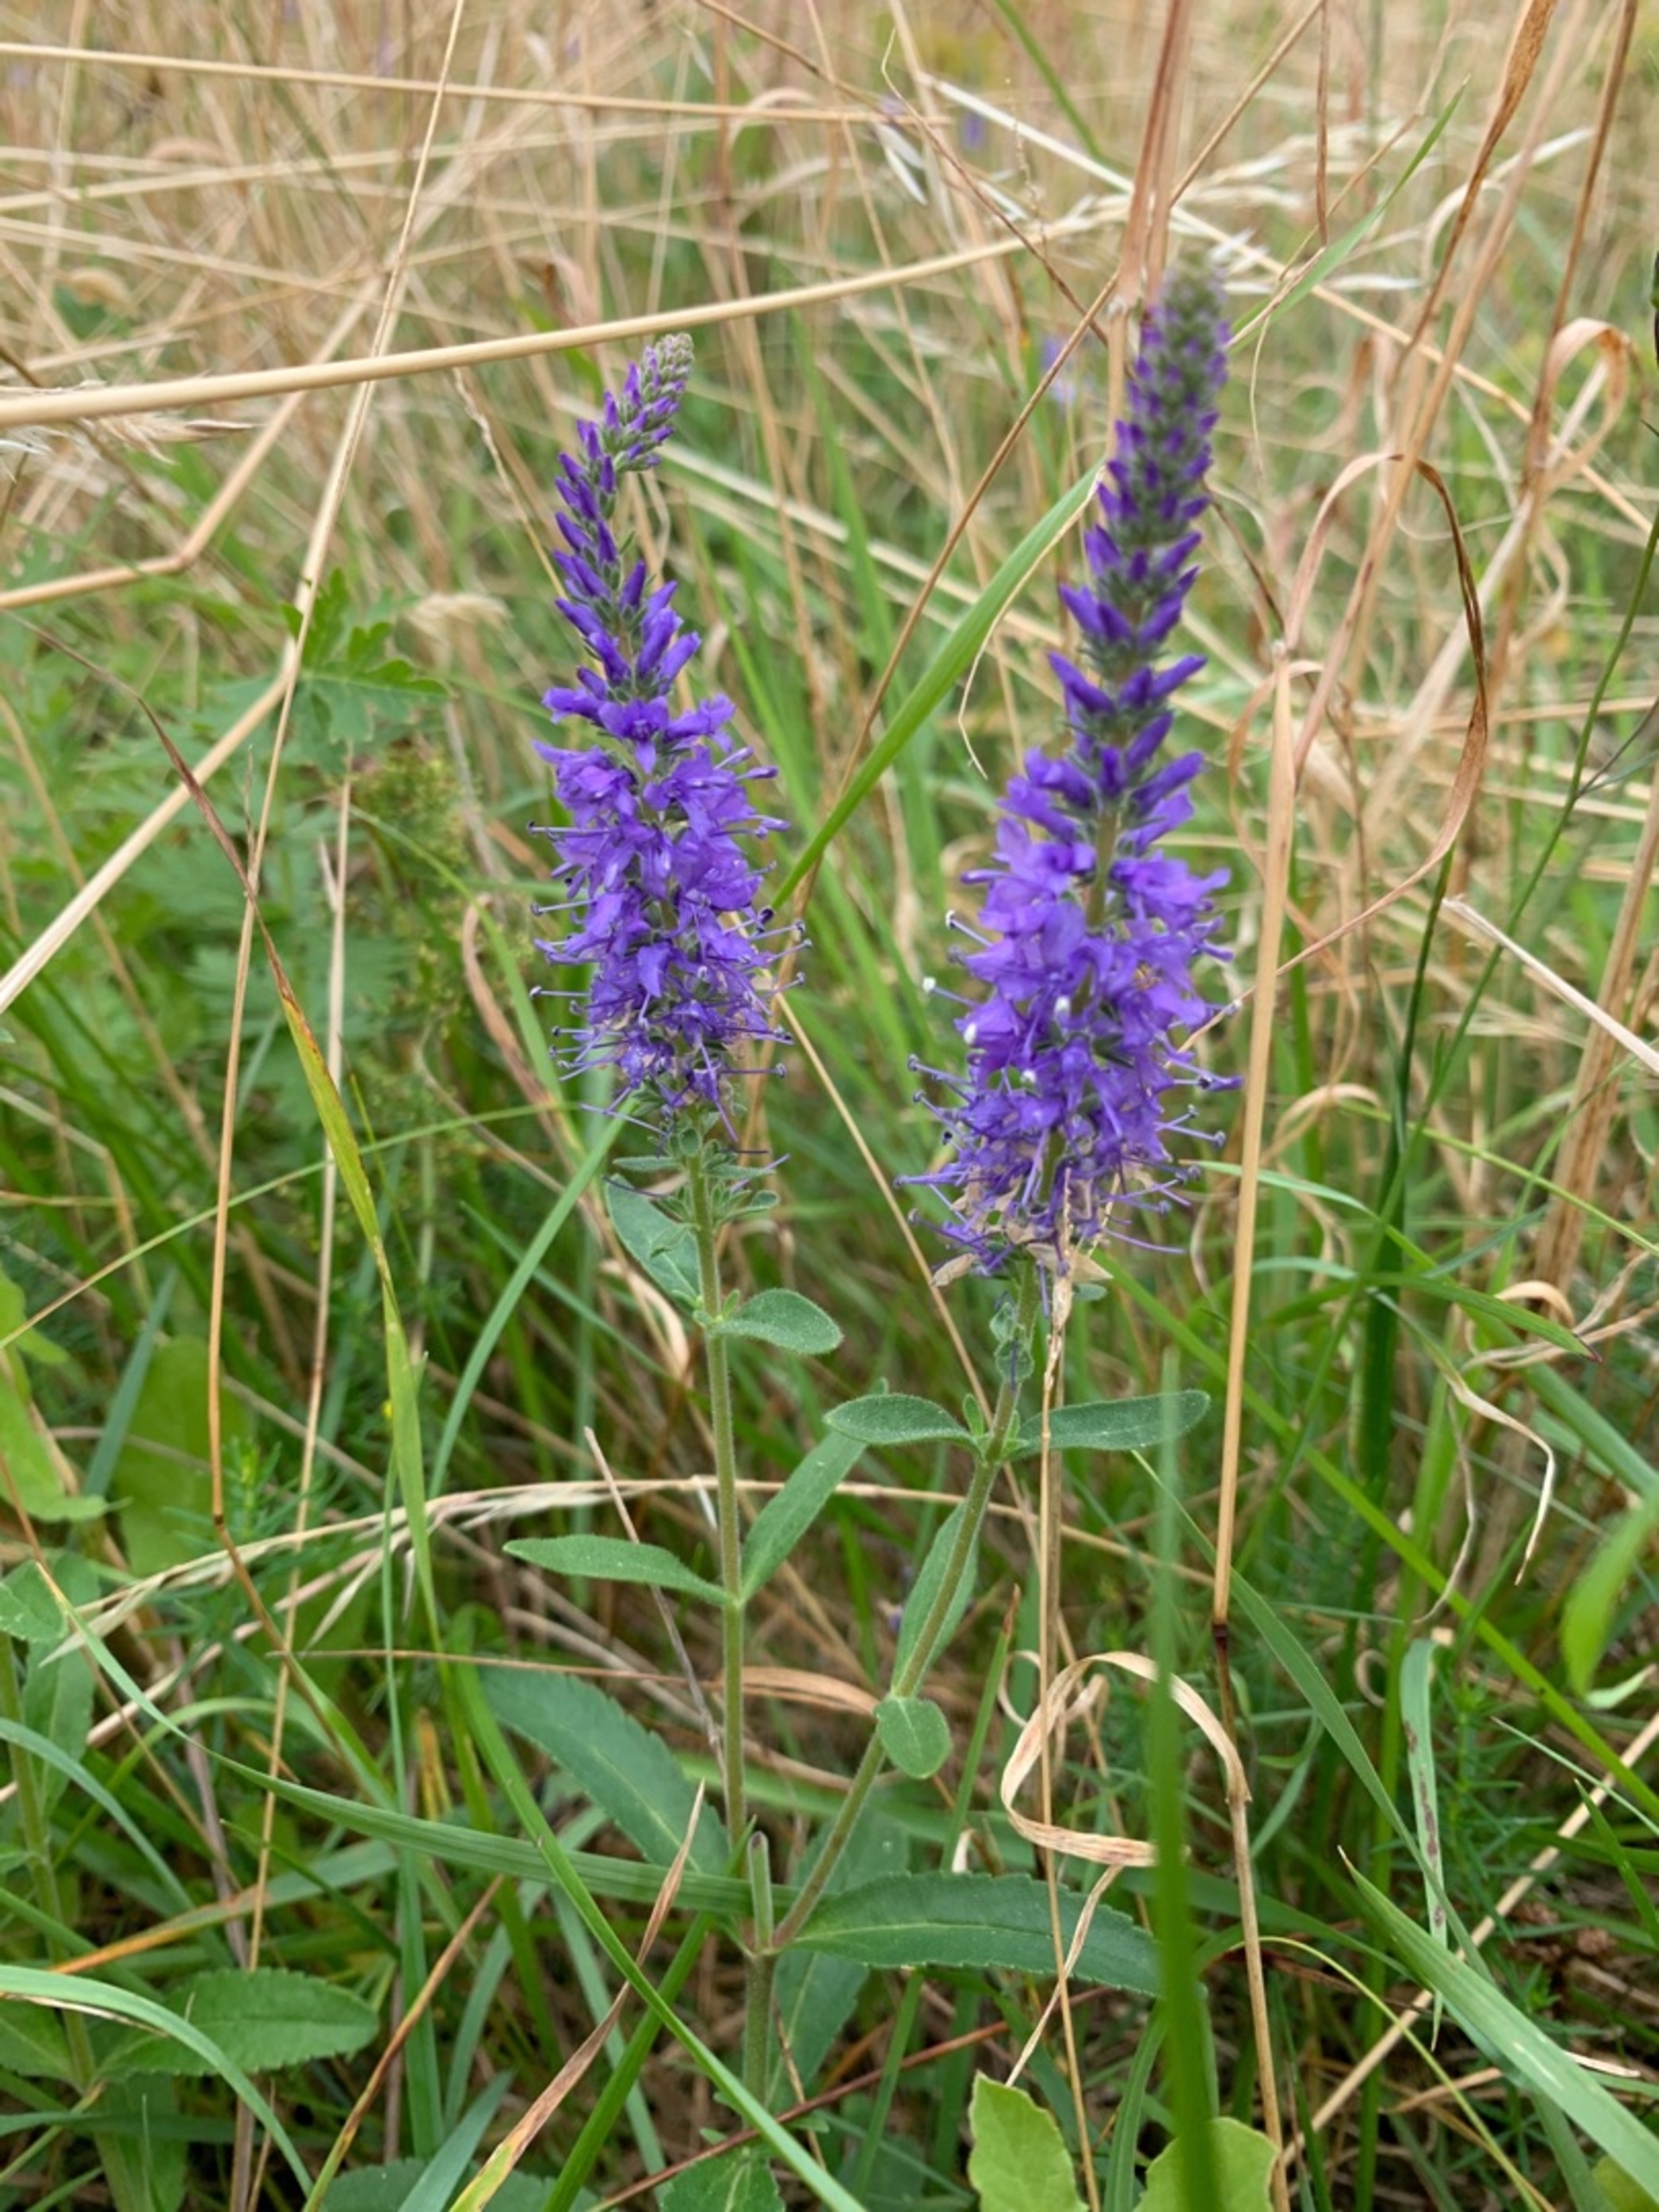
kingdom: Plantae
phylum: Tracheophyta
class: Magnoliopsida
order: Lamiales
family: Plantaginaceae
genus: Veronica
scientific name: Veronica spicata
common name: Aks-ærenpris
